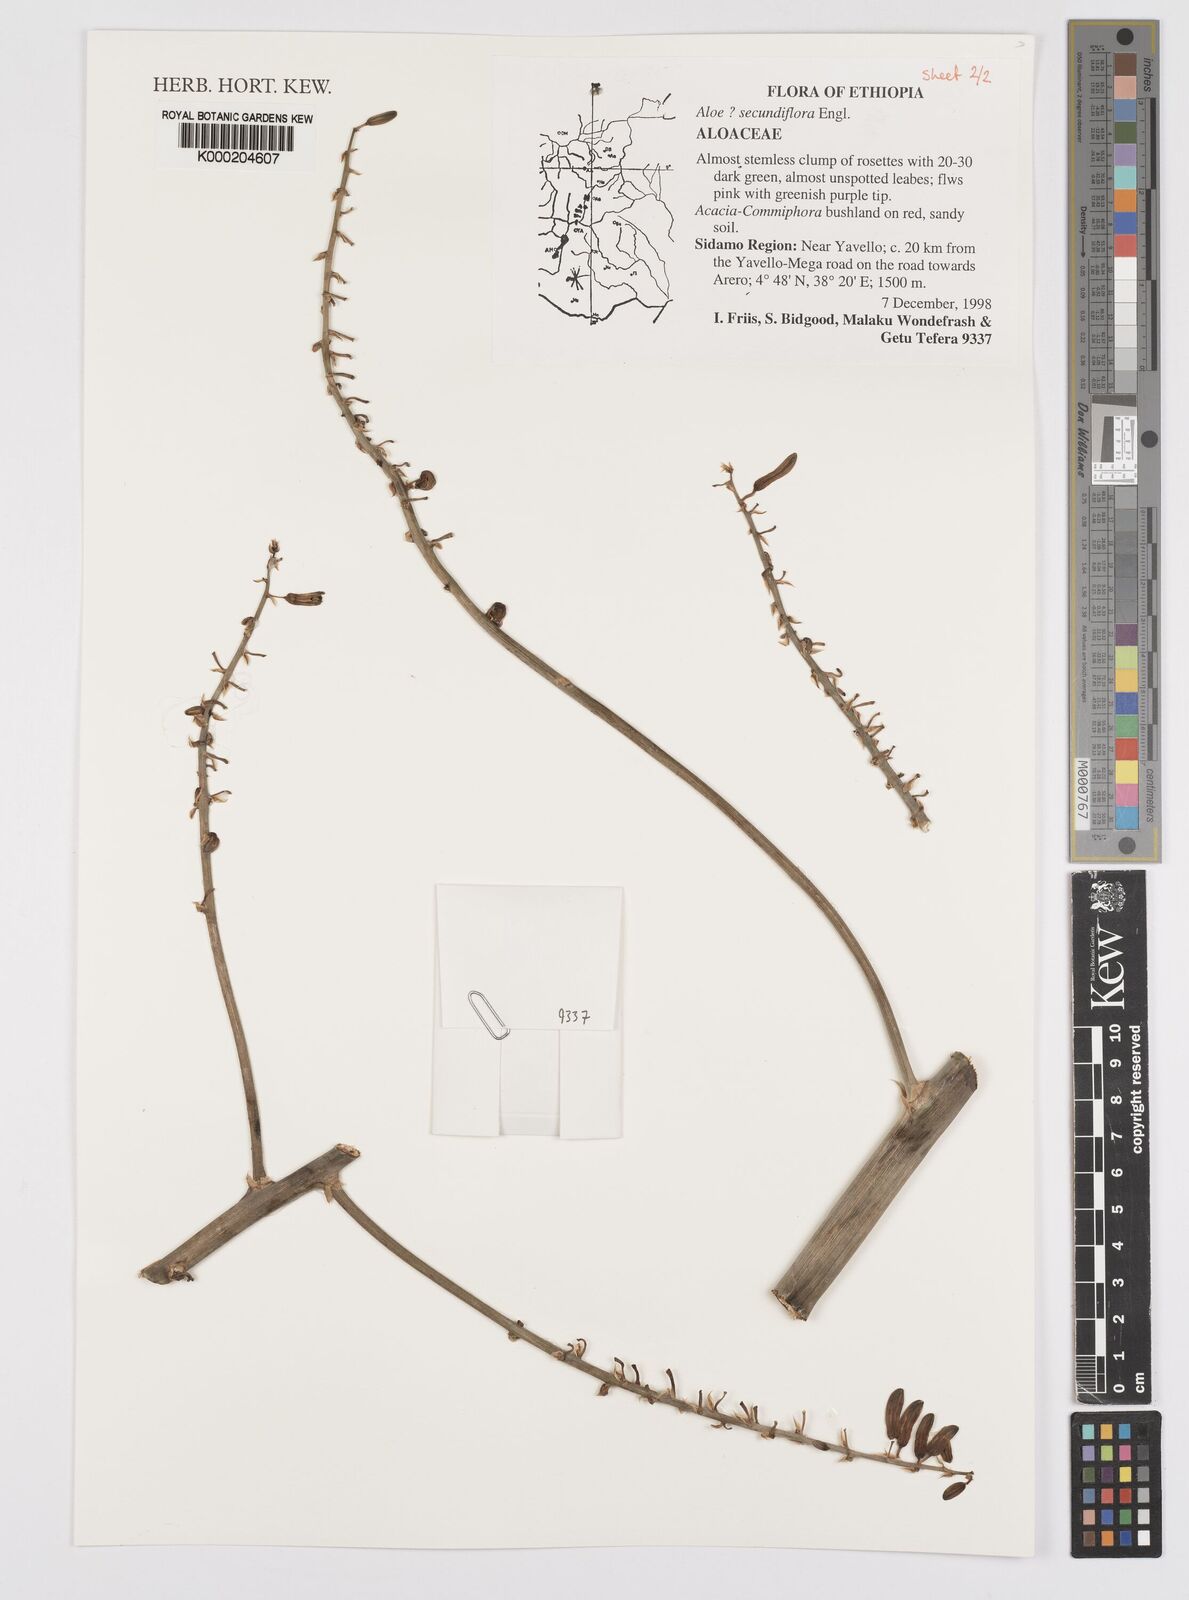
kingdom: Plantae
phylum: Tracheophyta
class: Liliopsida
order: Asparagales
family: Asphodelaceae
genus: Aloe
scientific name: Aloe secundiflora
